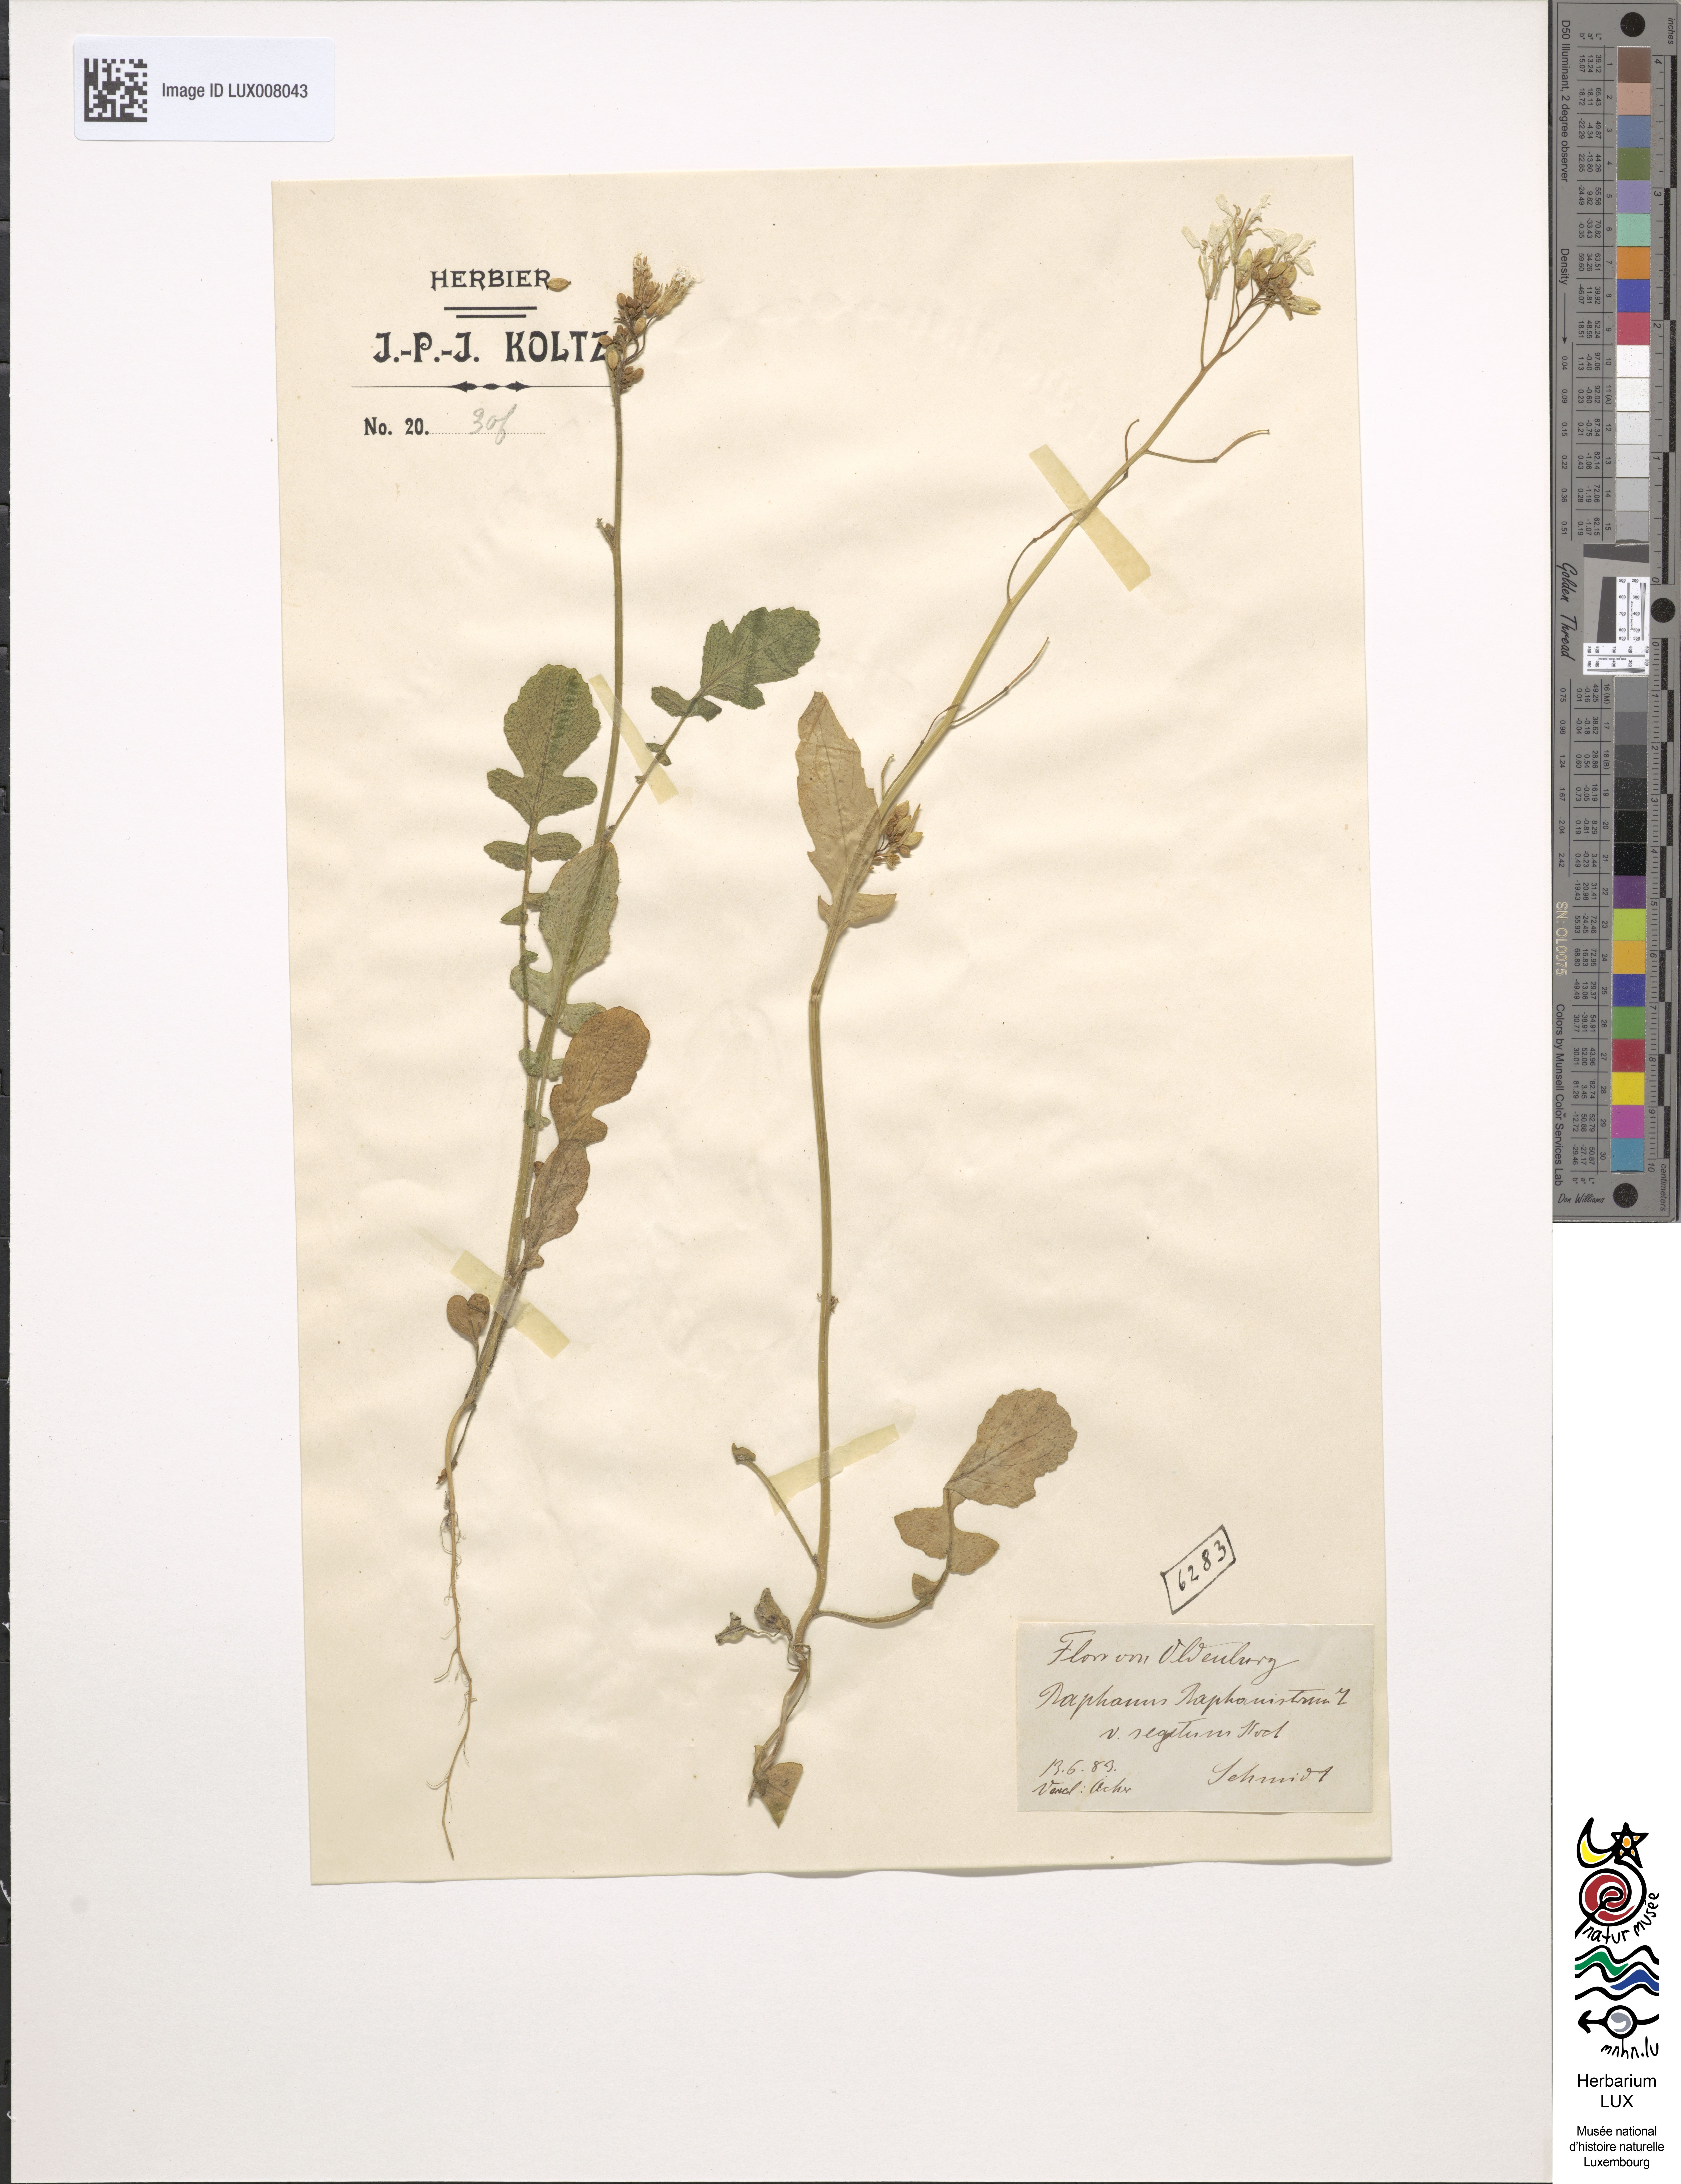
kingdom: Plantae
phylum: Tracheophyta
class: Magnoliopsida
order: Brassicales
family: Brassicaceae
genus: Raphanus
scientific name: Raphanus raphanistrum
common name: Wild radish
